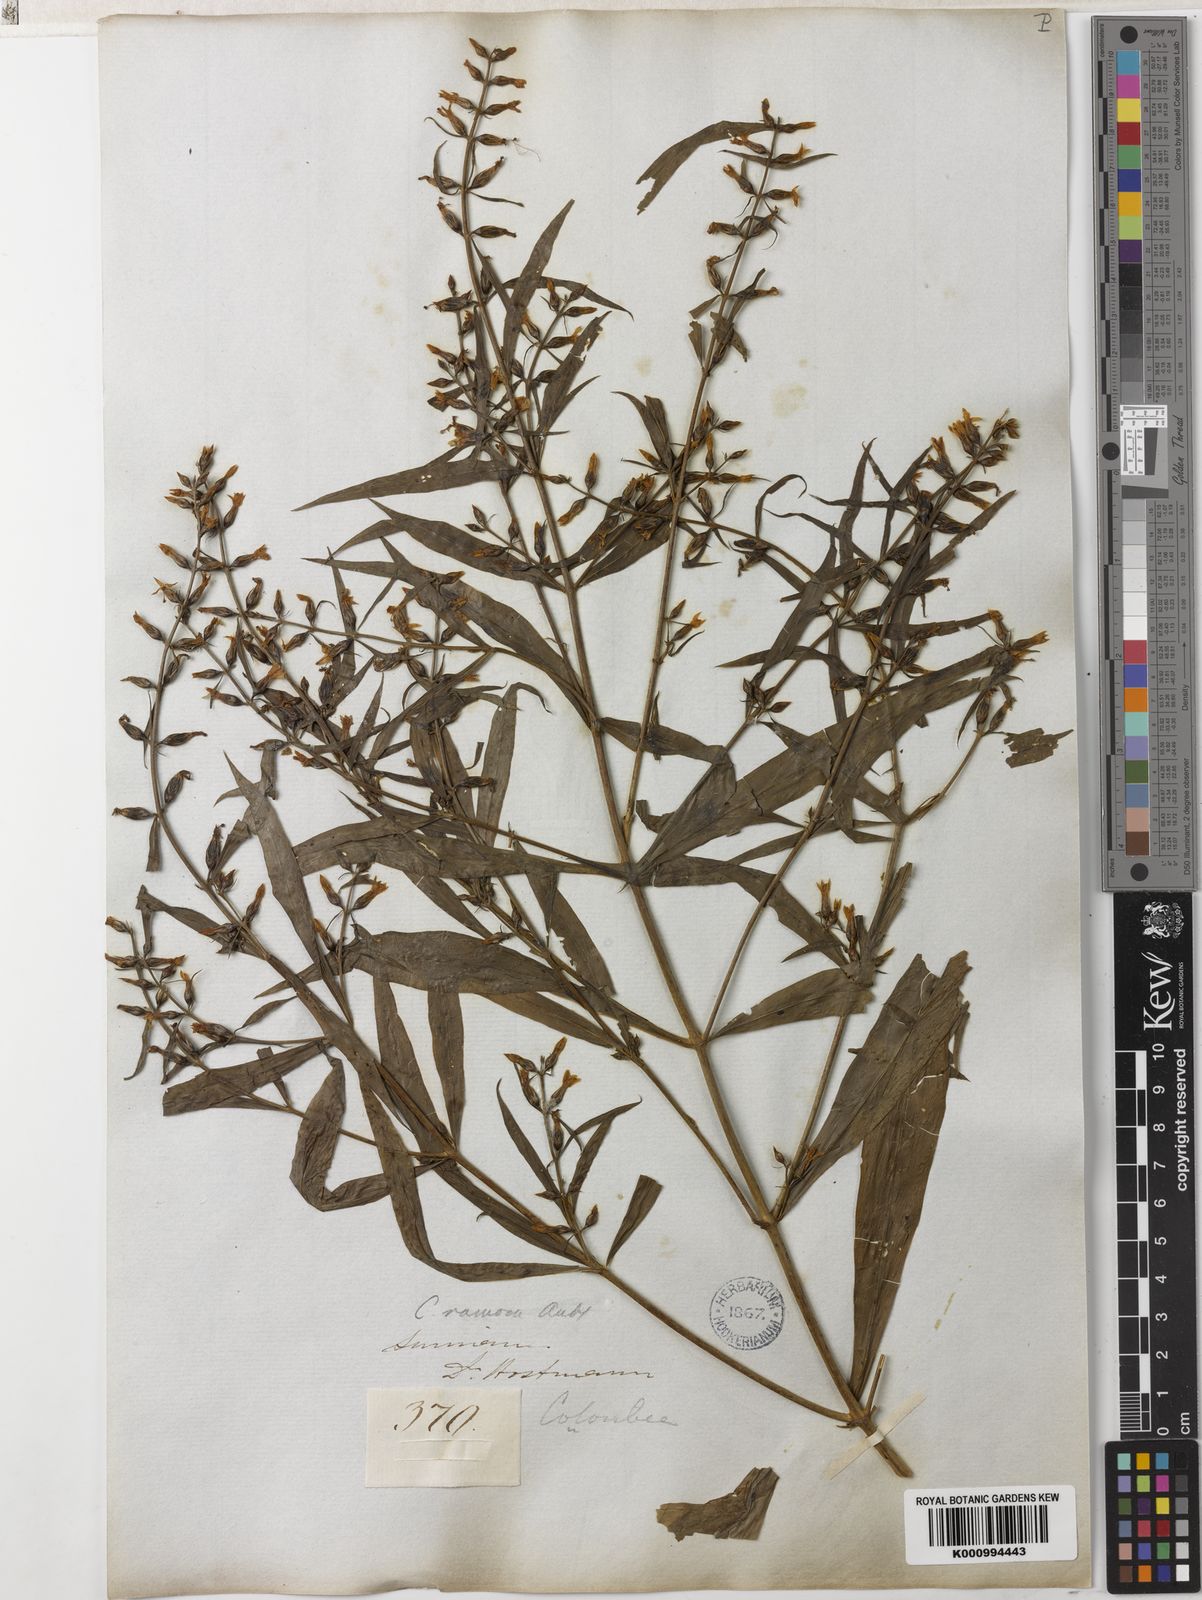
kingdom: Plantae
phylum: Tracheophyta
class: Magnoliopsida
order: Gentianales
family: Gentianaceae
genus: Coutoubea
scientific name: Coutoubea ramosa
